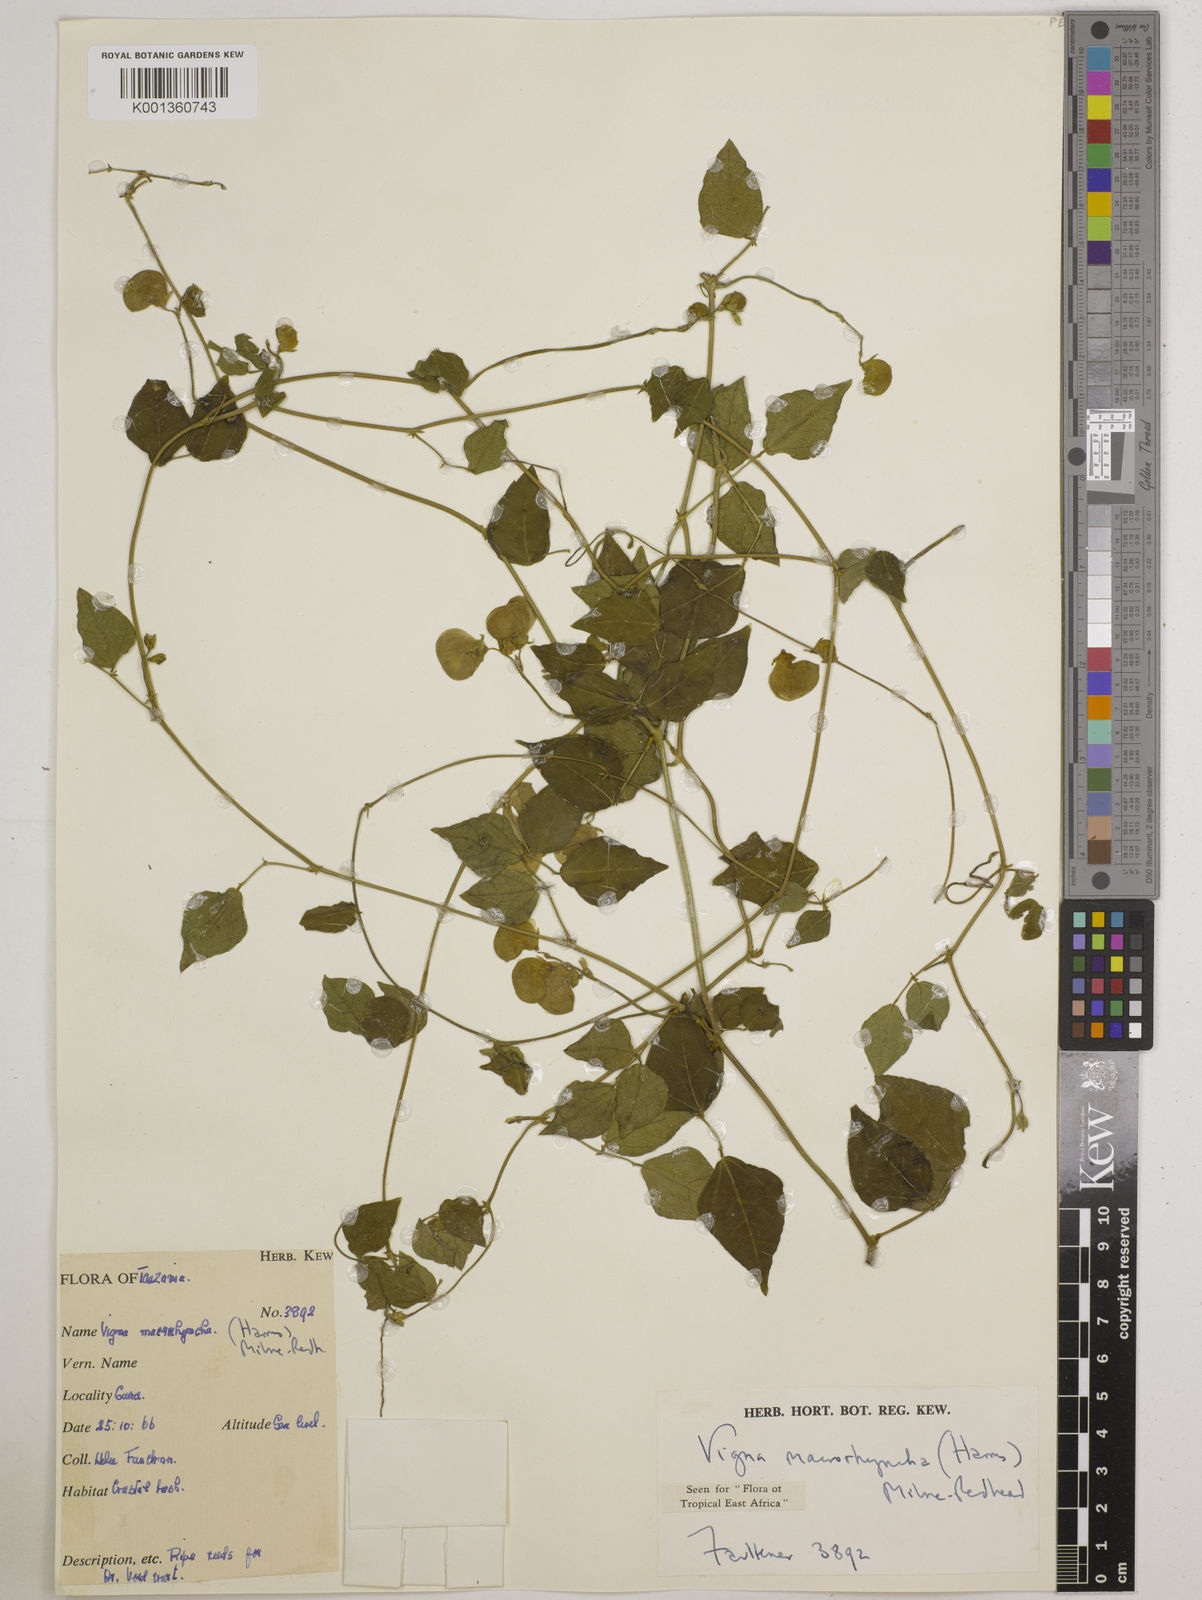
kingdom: Plantae
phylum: Tracheophyta
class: Magnoliopsida
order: Fabales
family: Fabaceae
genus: Wajira
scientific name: Wajira grahamiana
